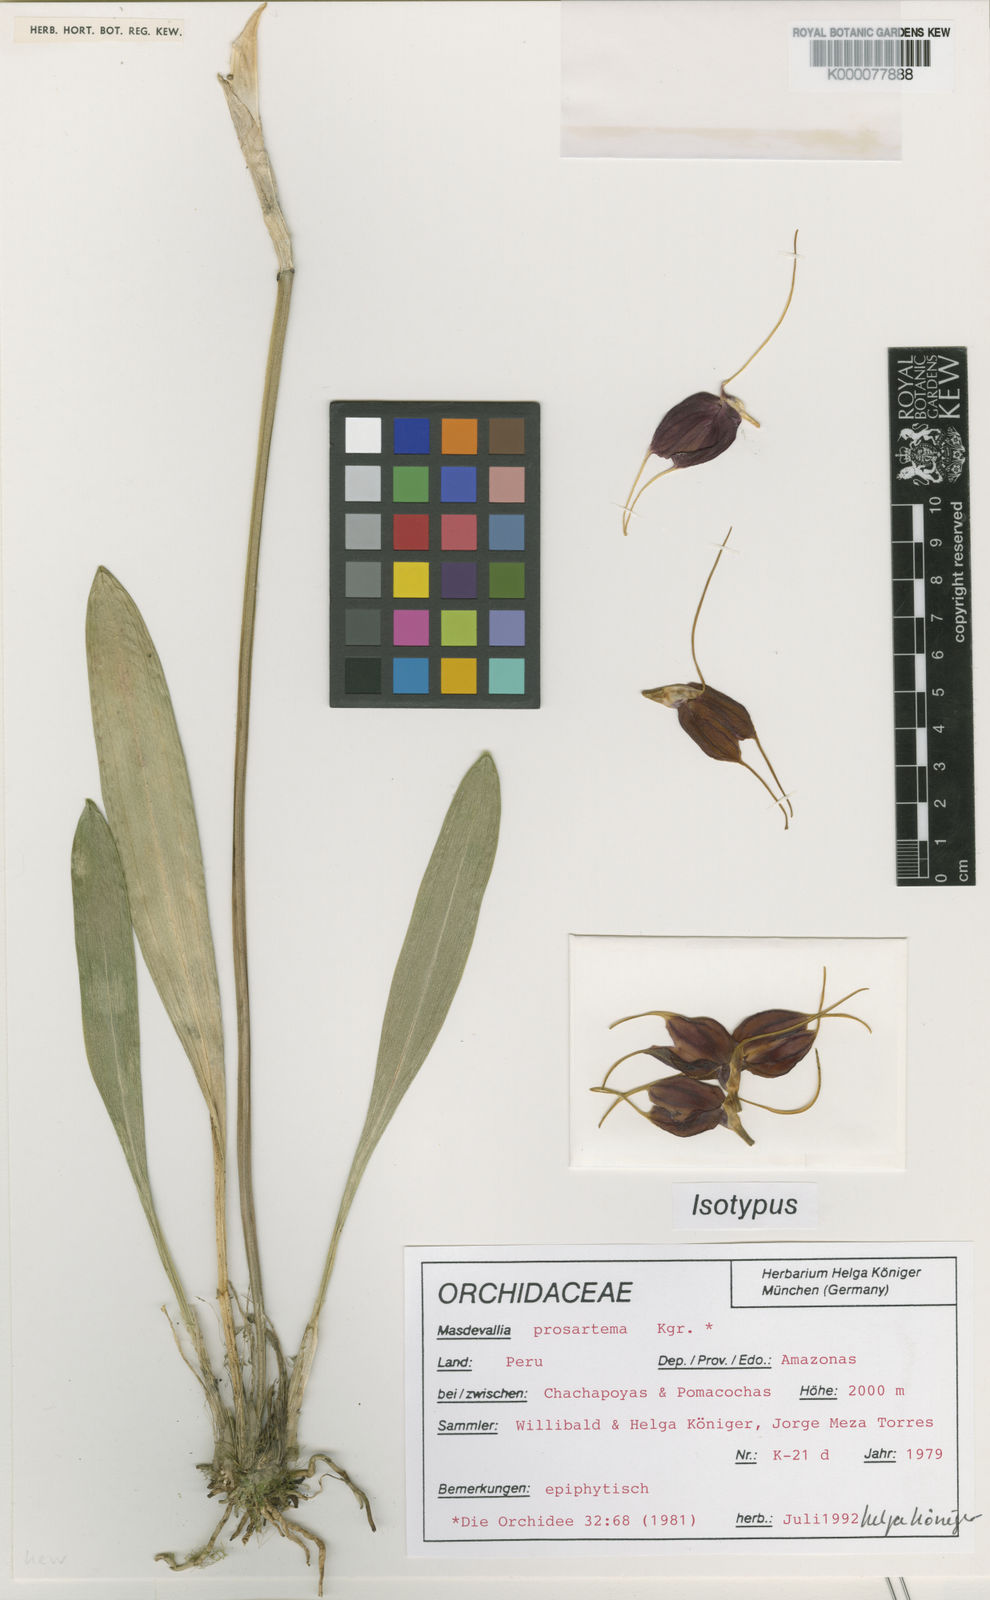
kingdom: Plantae
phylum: Tracheophyta
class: Liliopsida
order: Asparagales
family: Orchidaceae
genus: Masdevallia
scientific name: Masdevallia
